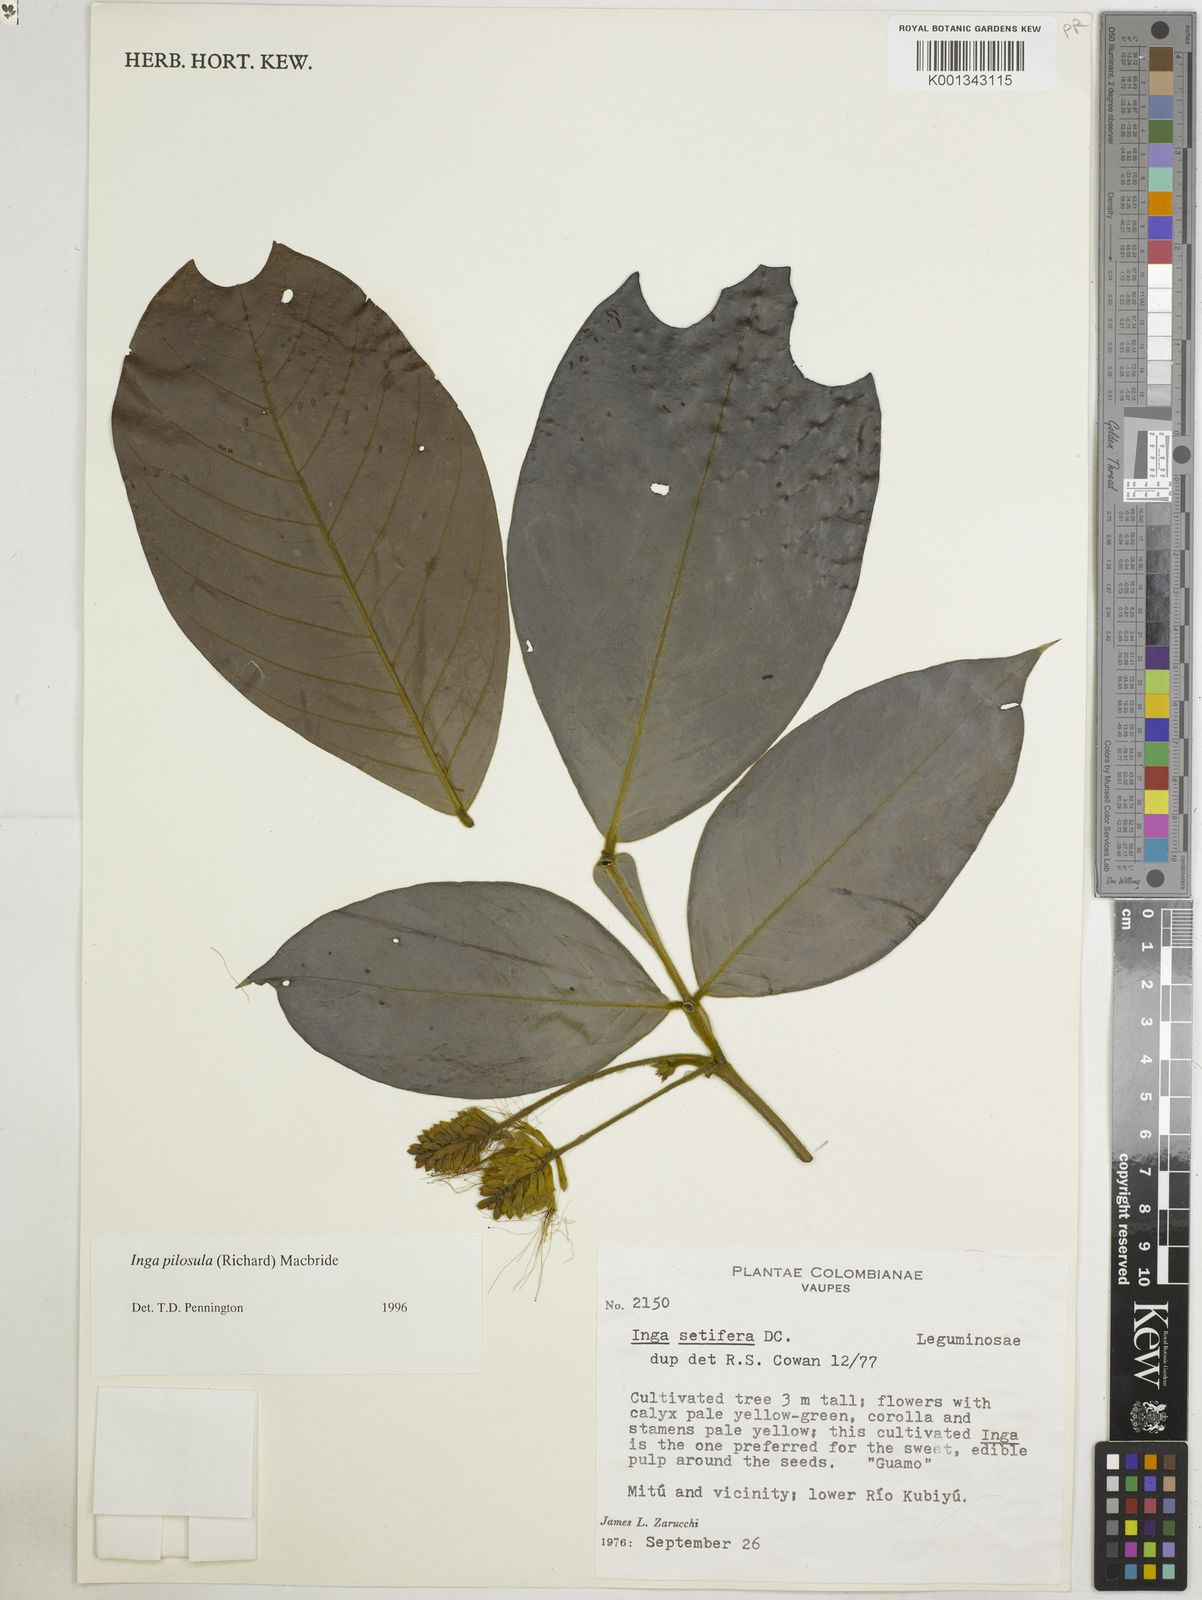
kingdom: Plantae
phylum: Tracheophyta
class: Magnoliopsida
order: Fabales
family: Fabaceae
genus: Inga
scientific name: Inga pilosula
